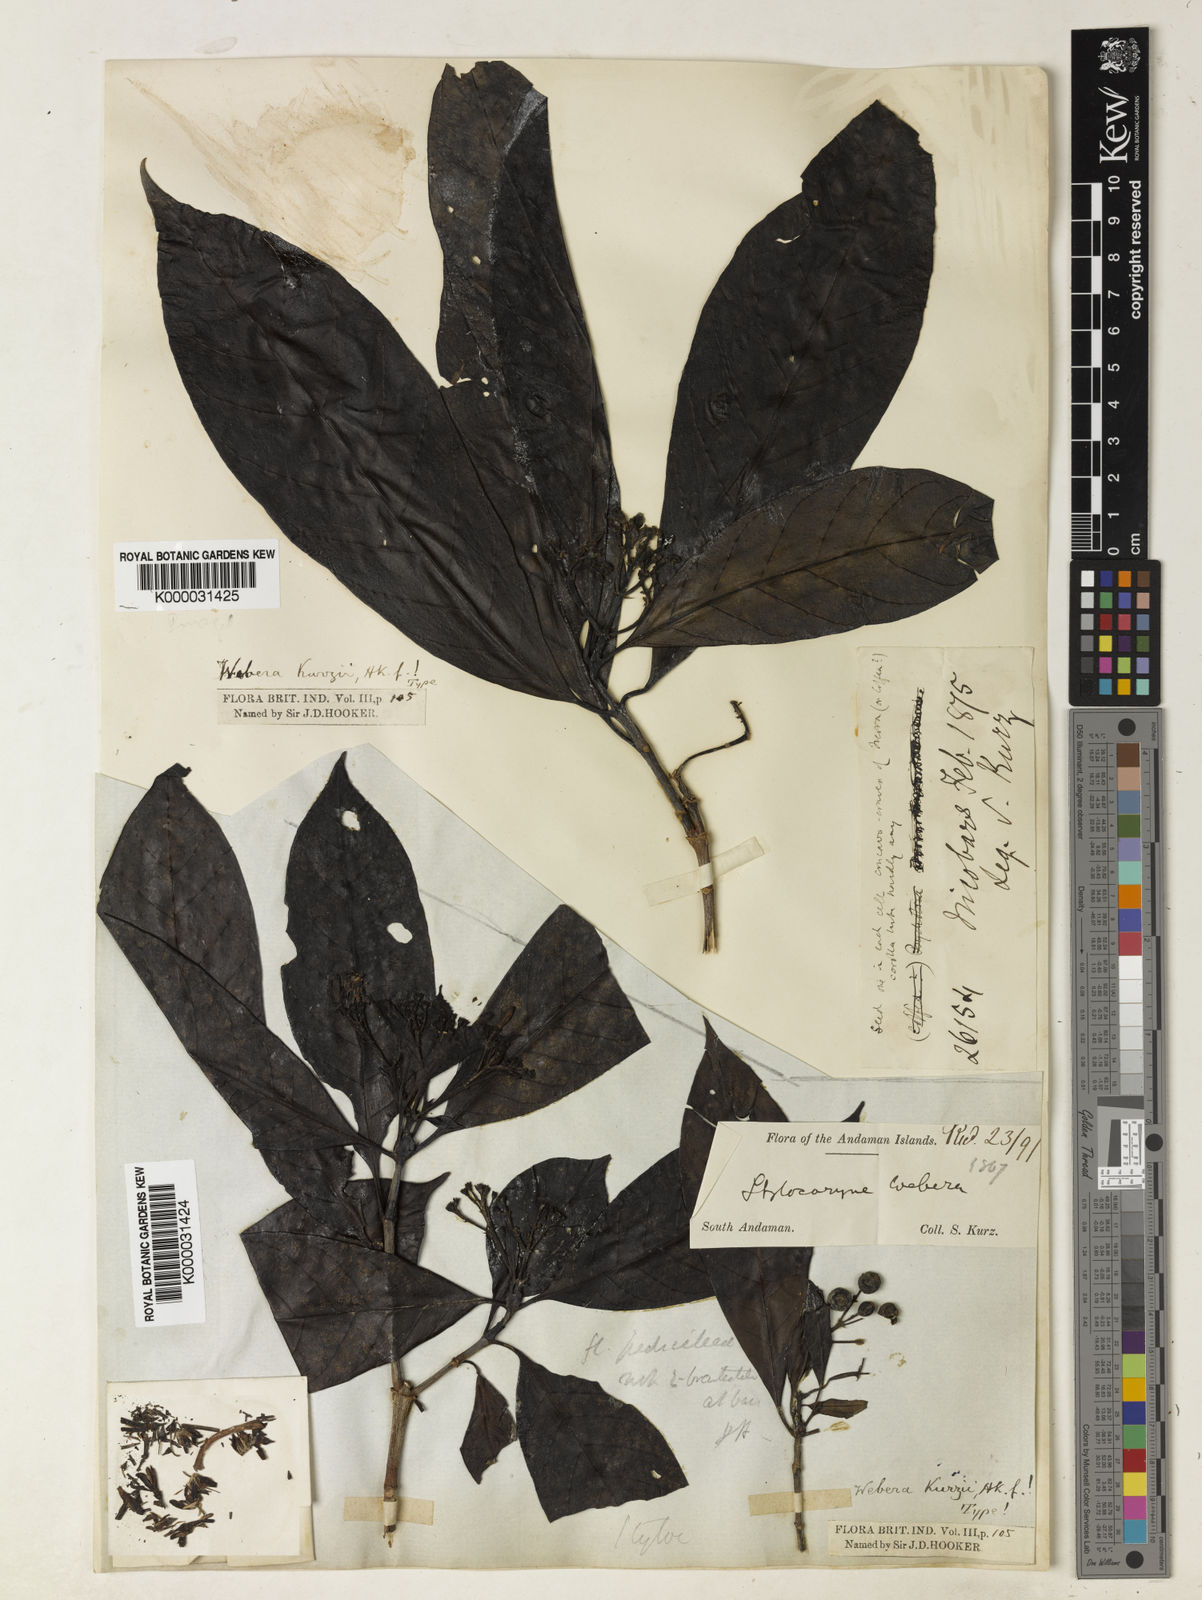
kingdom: Plantae
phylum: Tracheophyta
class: Magnoliopsida
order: Gentianales
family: Rubiaceae
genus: Tarenna
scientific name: Tarenna
